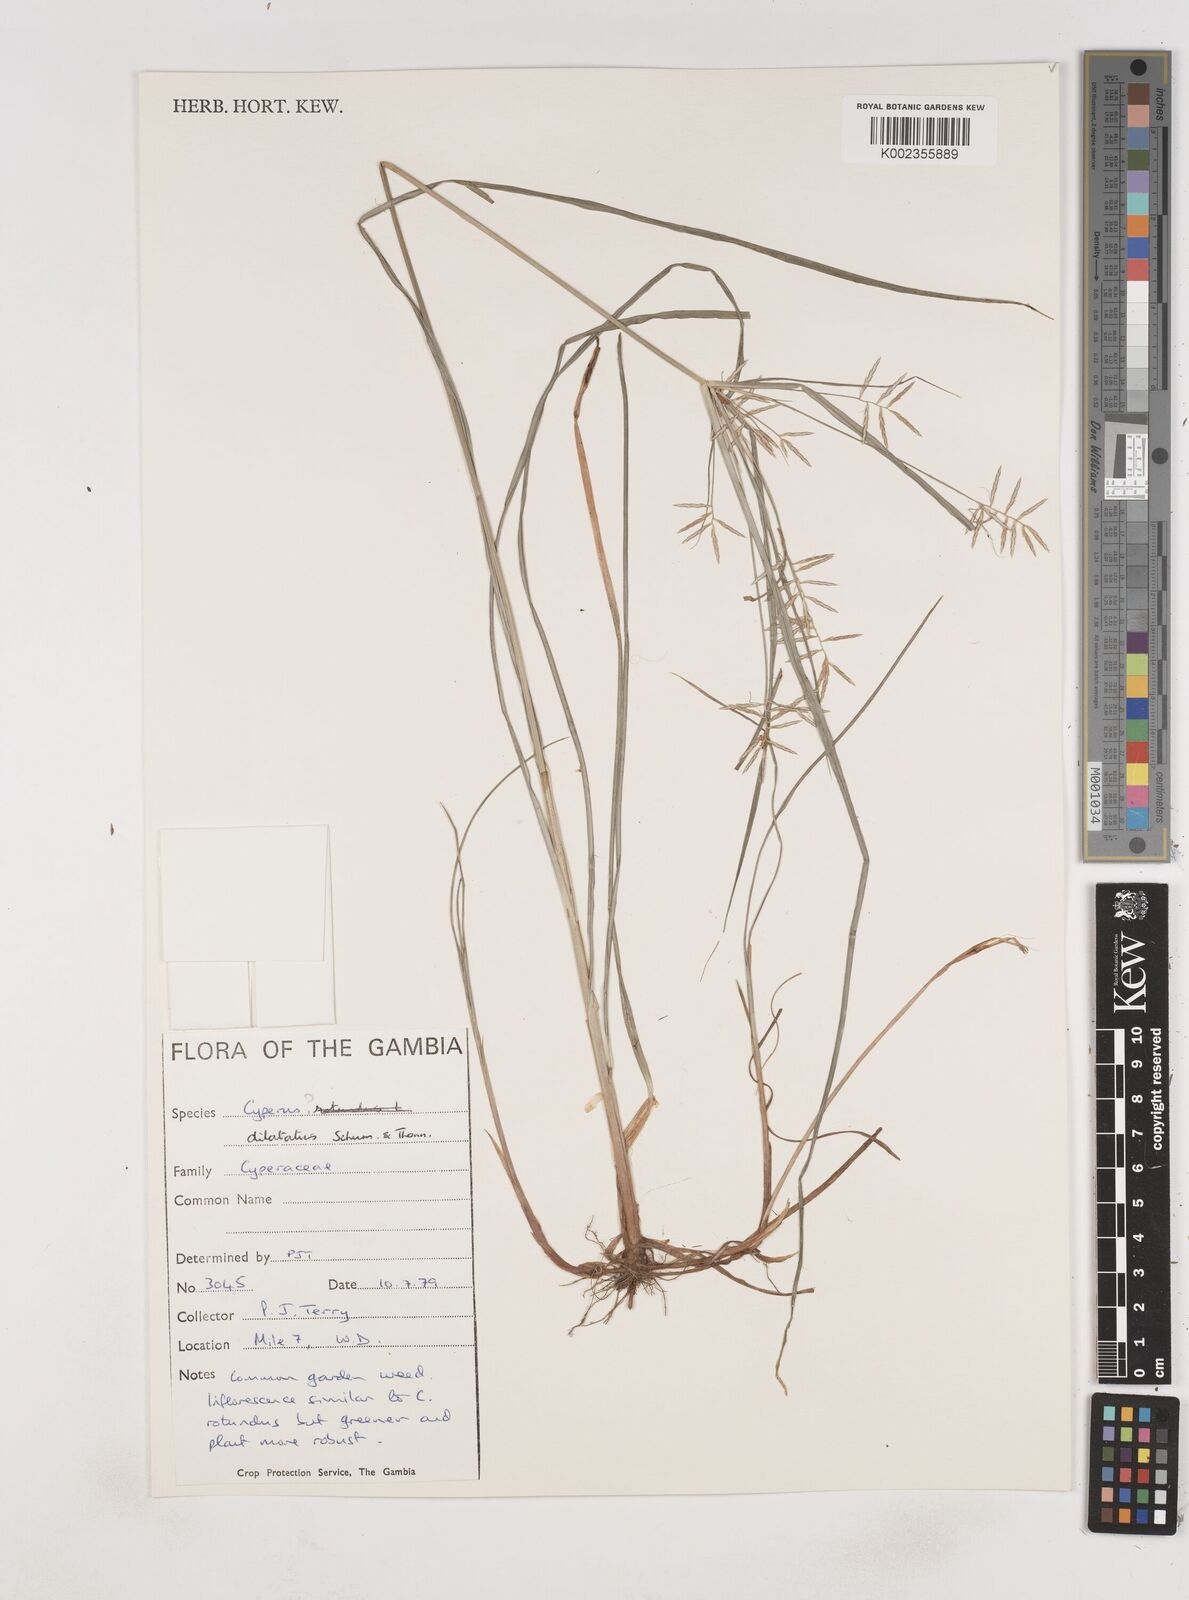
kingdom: Plantae
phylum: Tracheophyta
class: Liliopsida
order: Poales
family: Cyperaceae
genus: Cyperus
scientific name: Cyperus dilatatus
